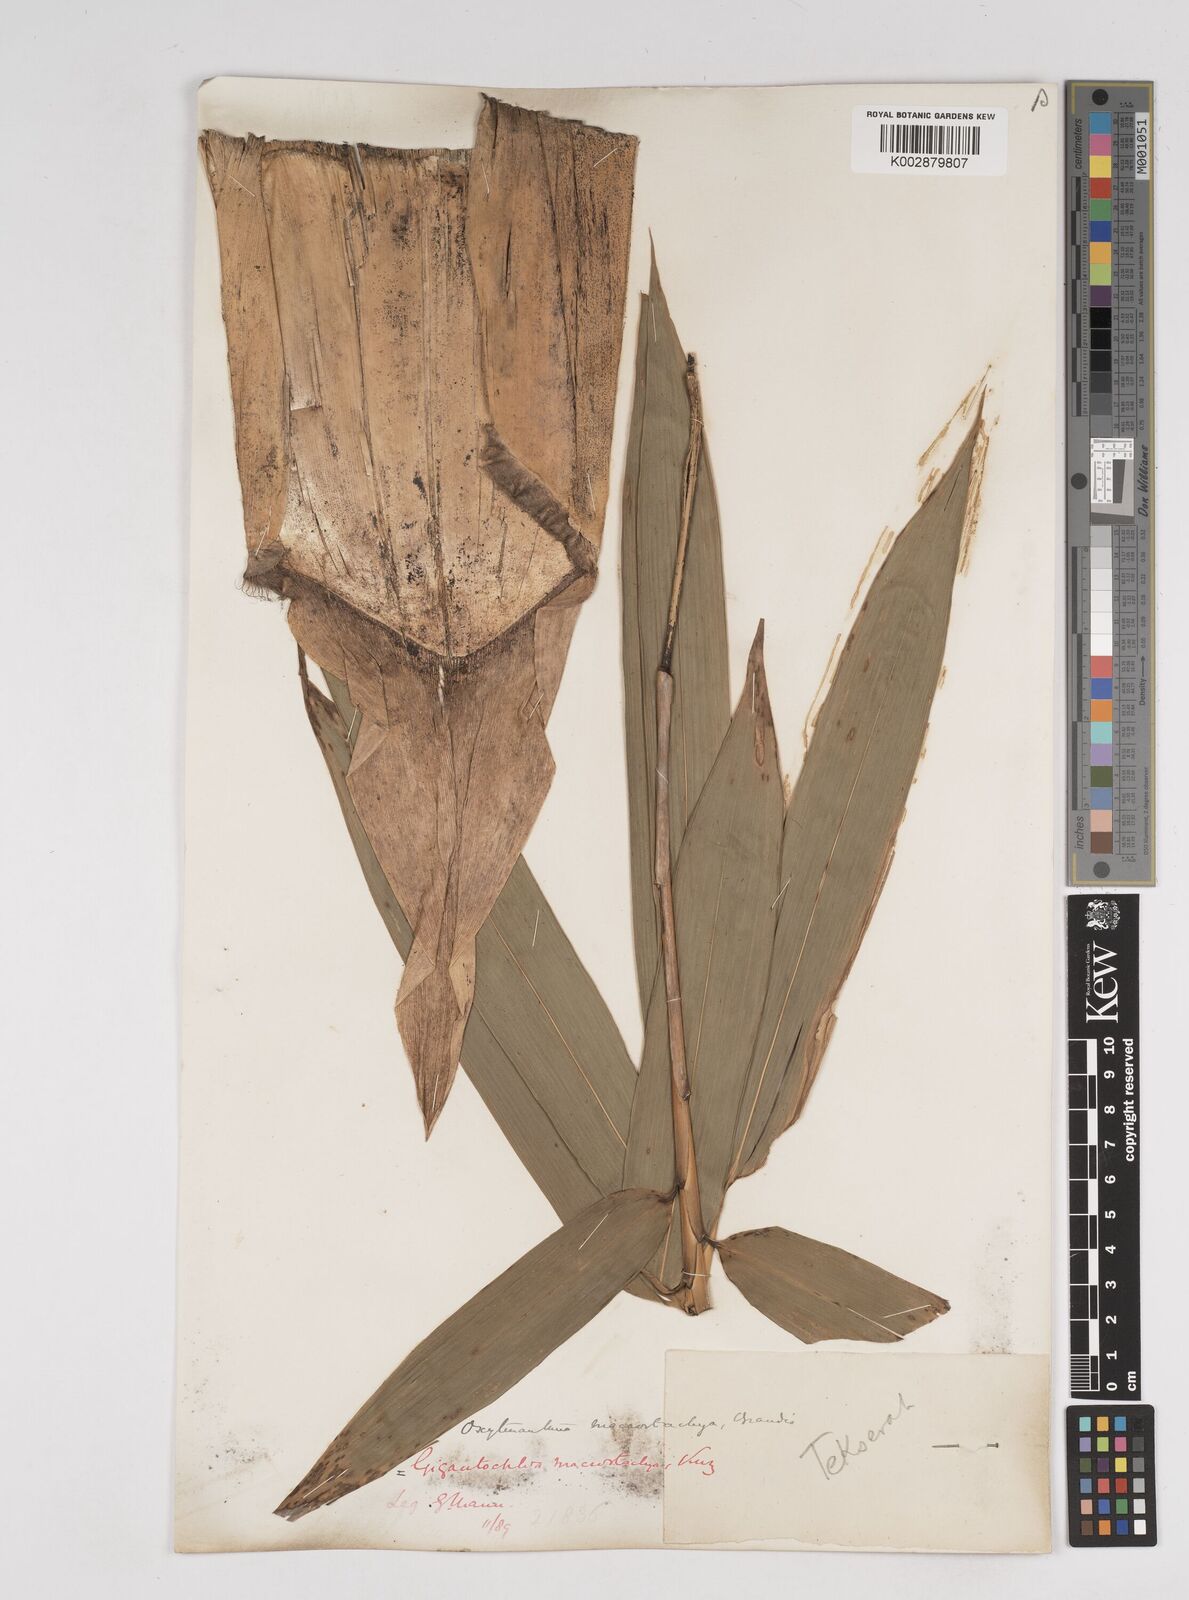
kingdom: Plantae
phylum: Tracheophyta
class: Liliopsida
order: Poales
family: Poaceae
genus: Gigantochloa
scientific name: Gigantochloa macrostachya
